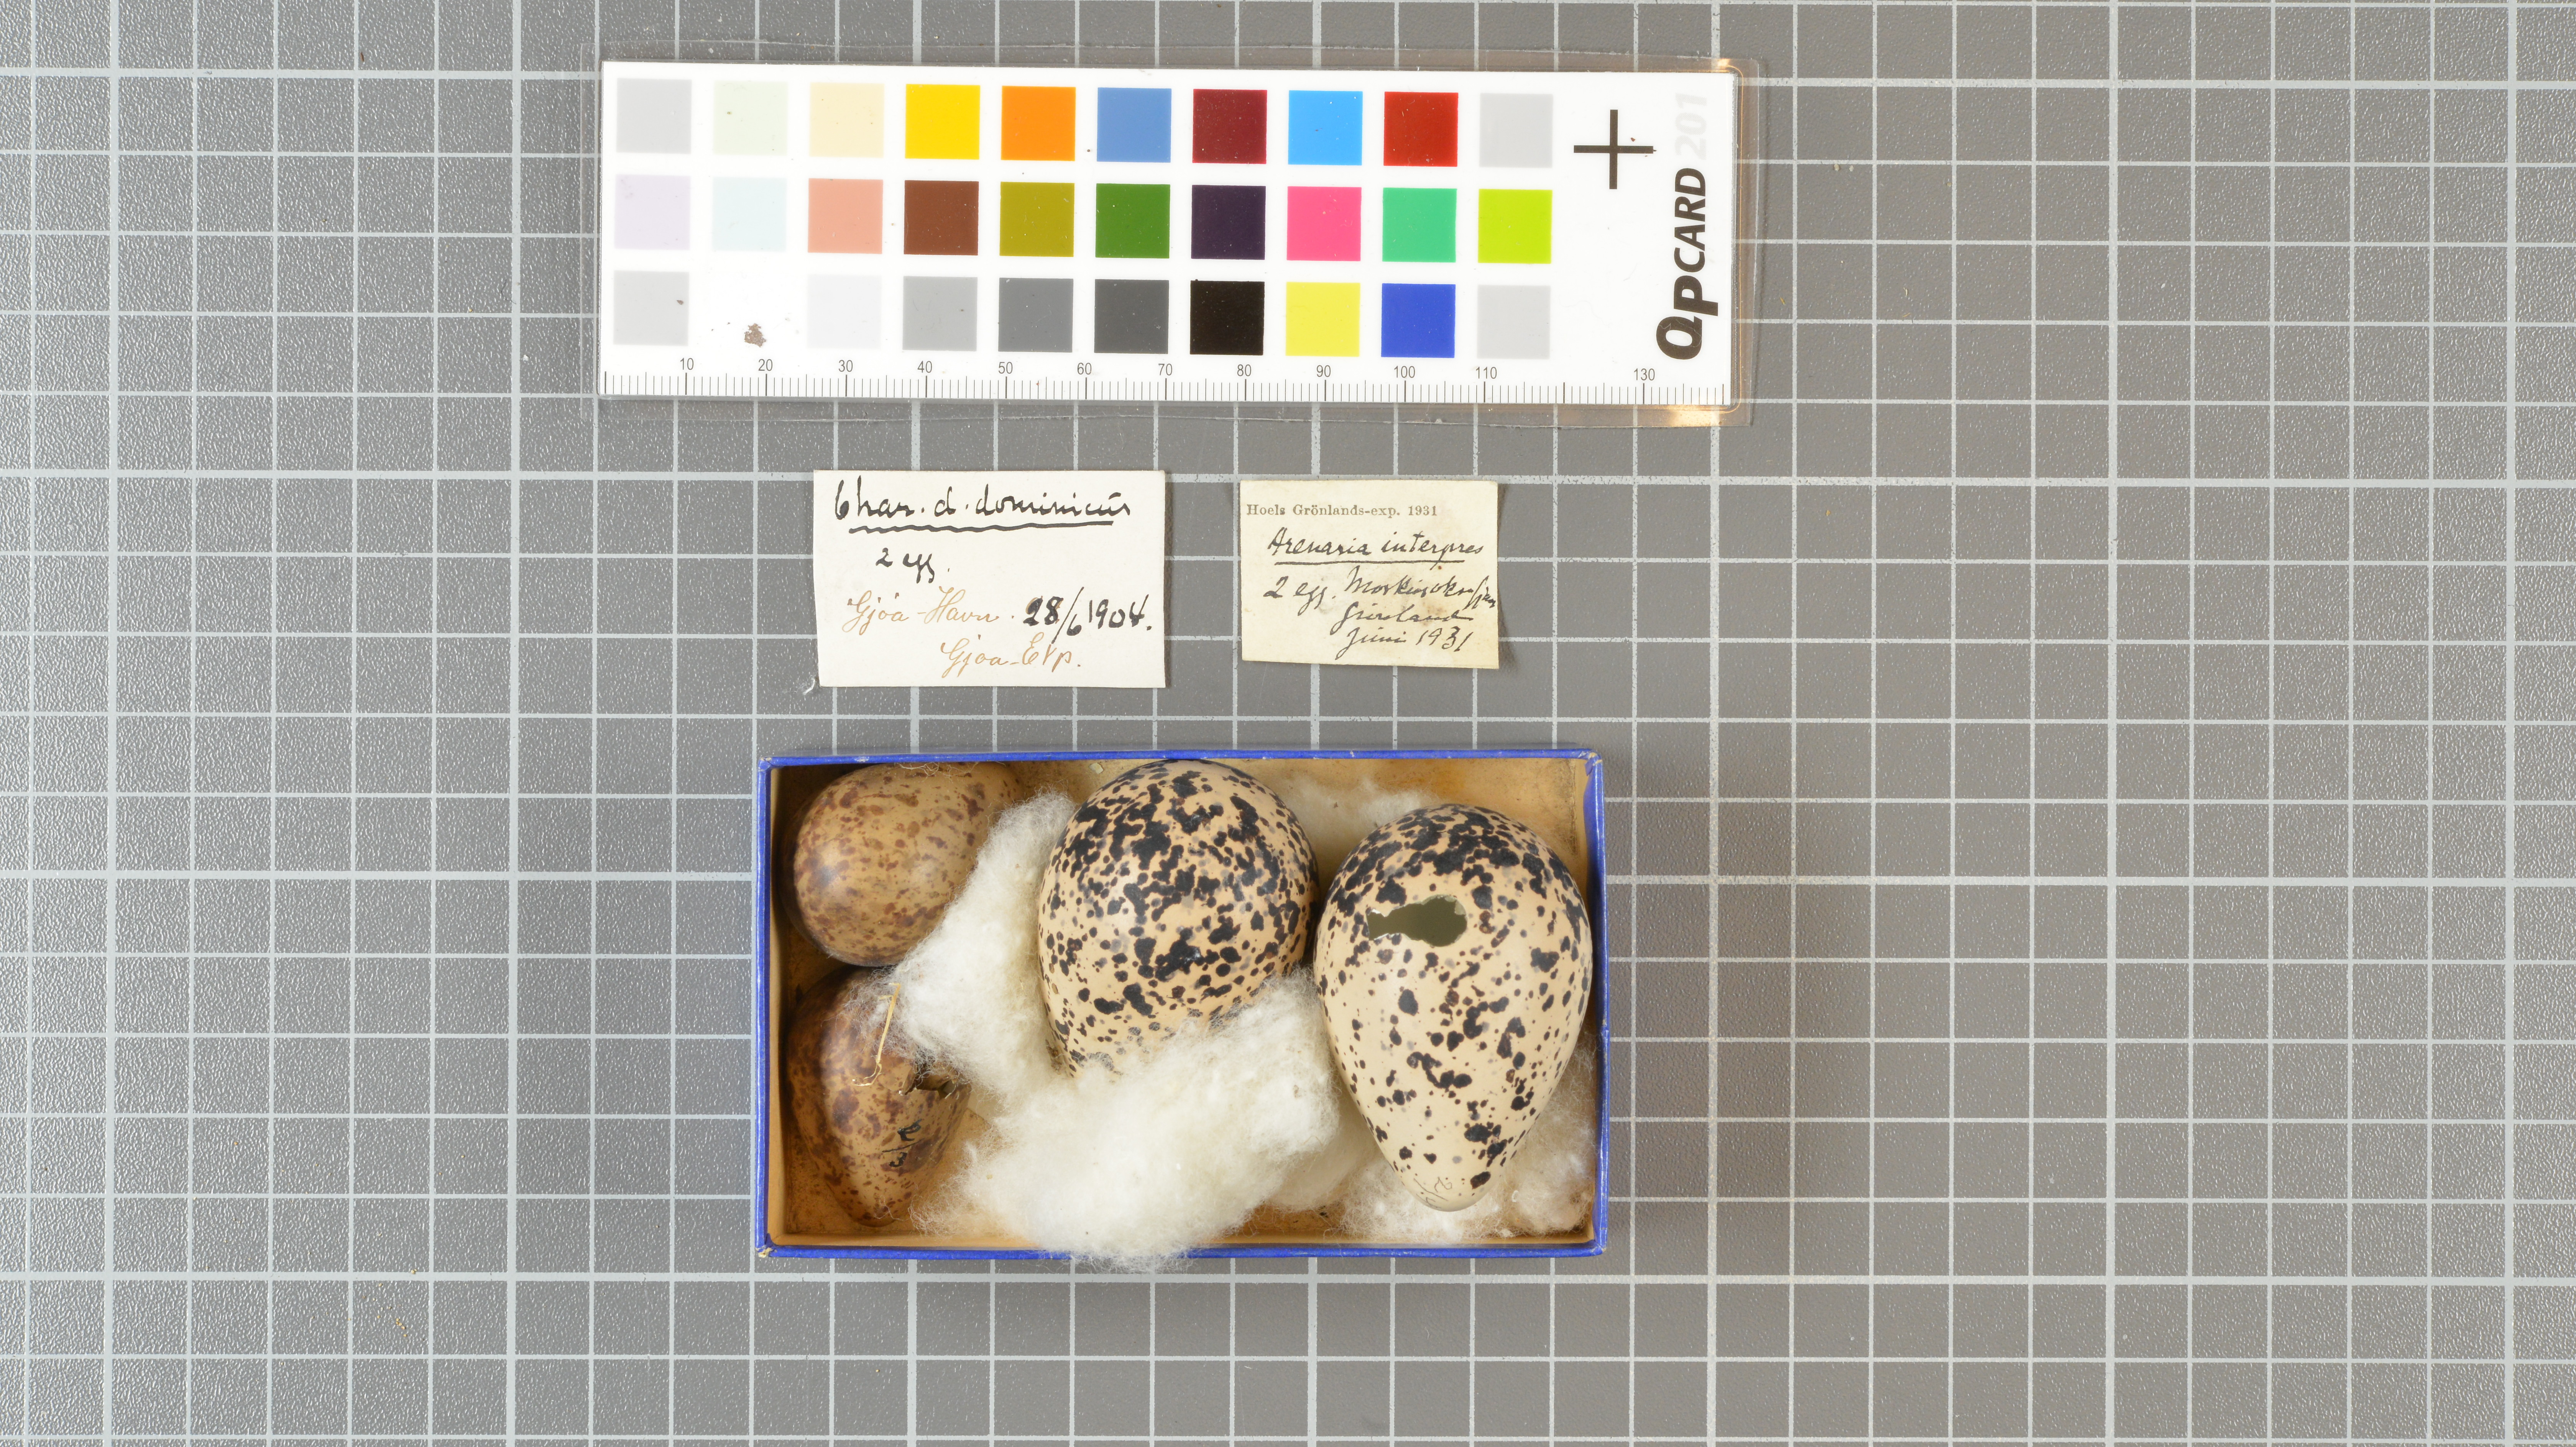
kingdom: Animalia
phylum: Chordata
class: Aves
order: Charadriiformes
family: Scolopacidae
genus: Arenaria
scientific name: Arenaria interpres
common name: Ruddy turnstone
